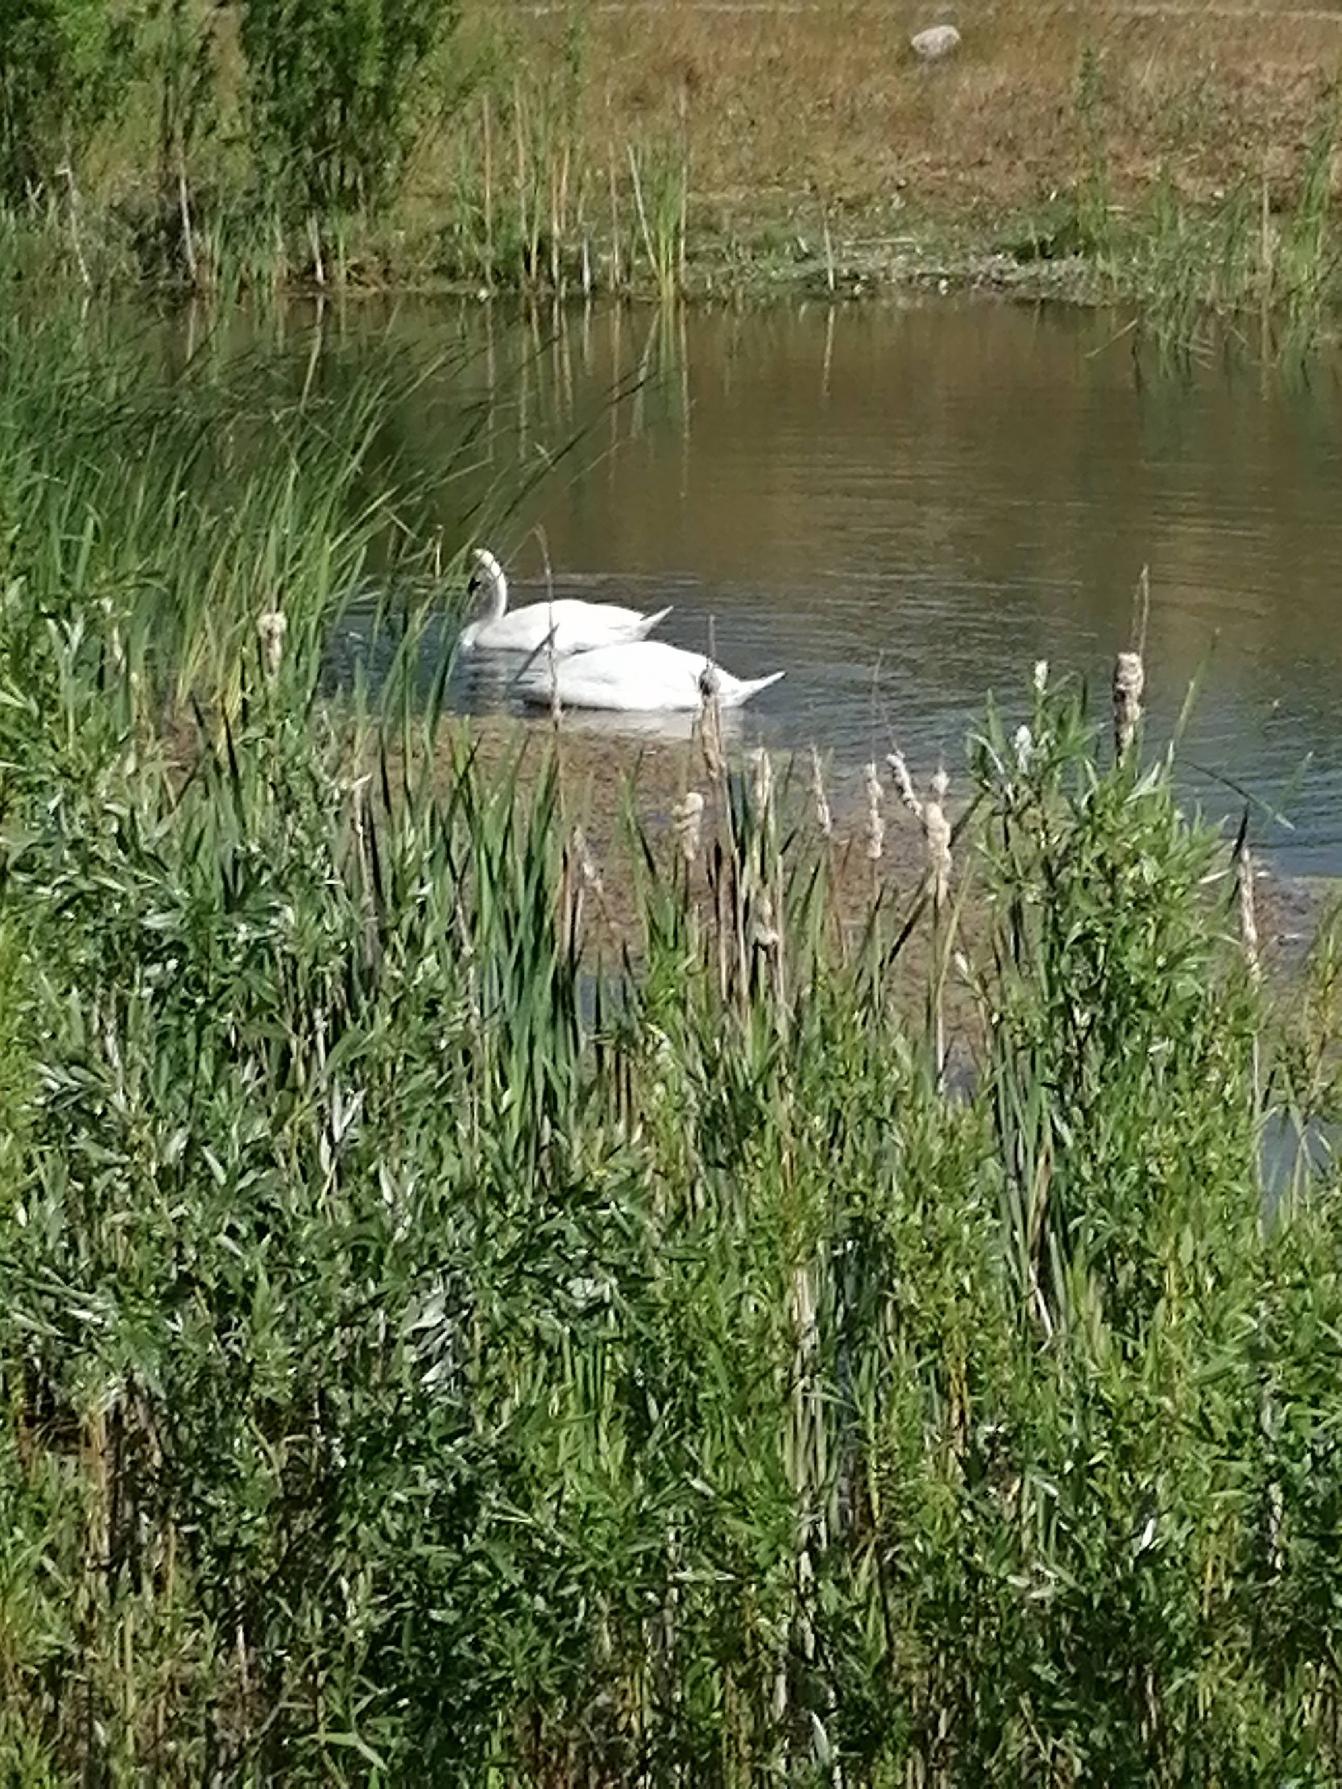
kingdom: Animalia
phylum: Chordata
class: Aves
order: Anseriformes
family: Anatidae
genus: Cygnus
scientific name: Cygnus olor
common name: Knopsvane
